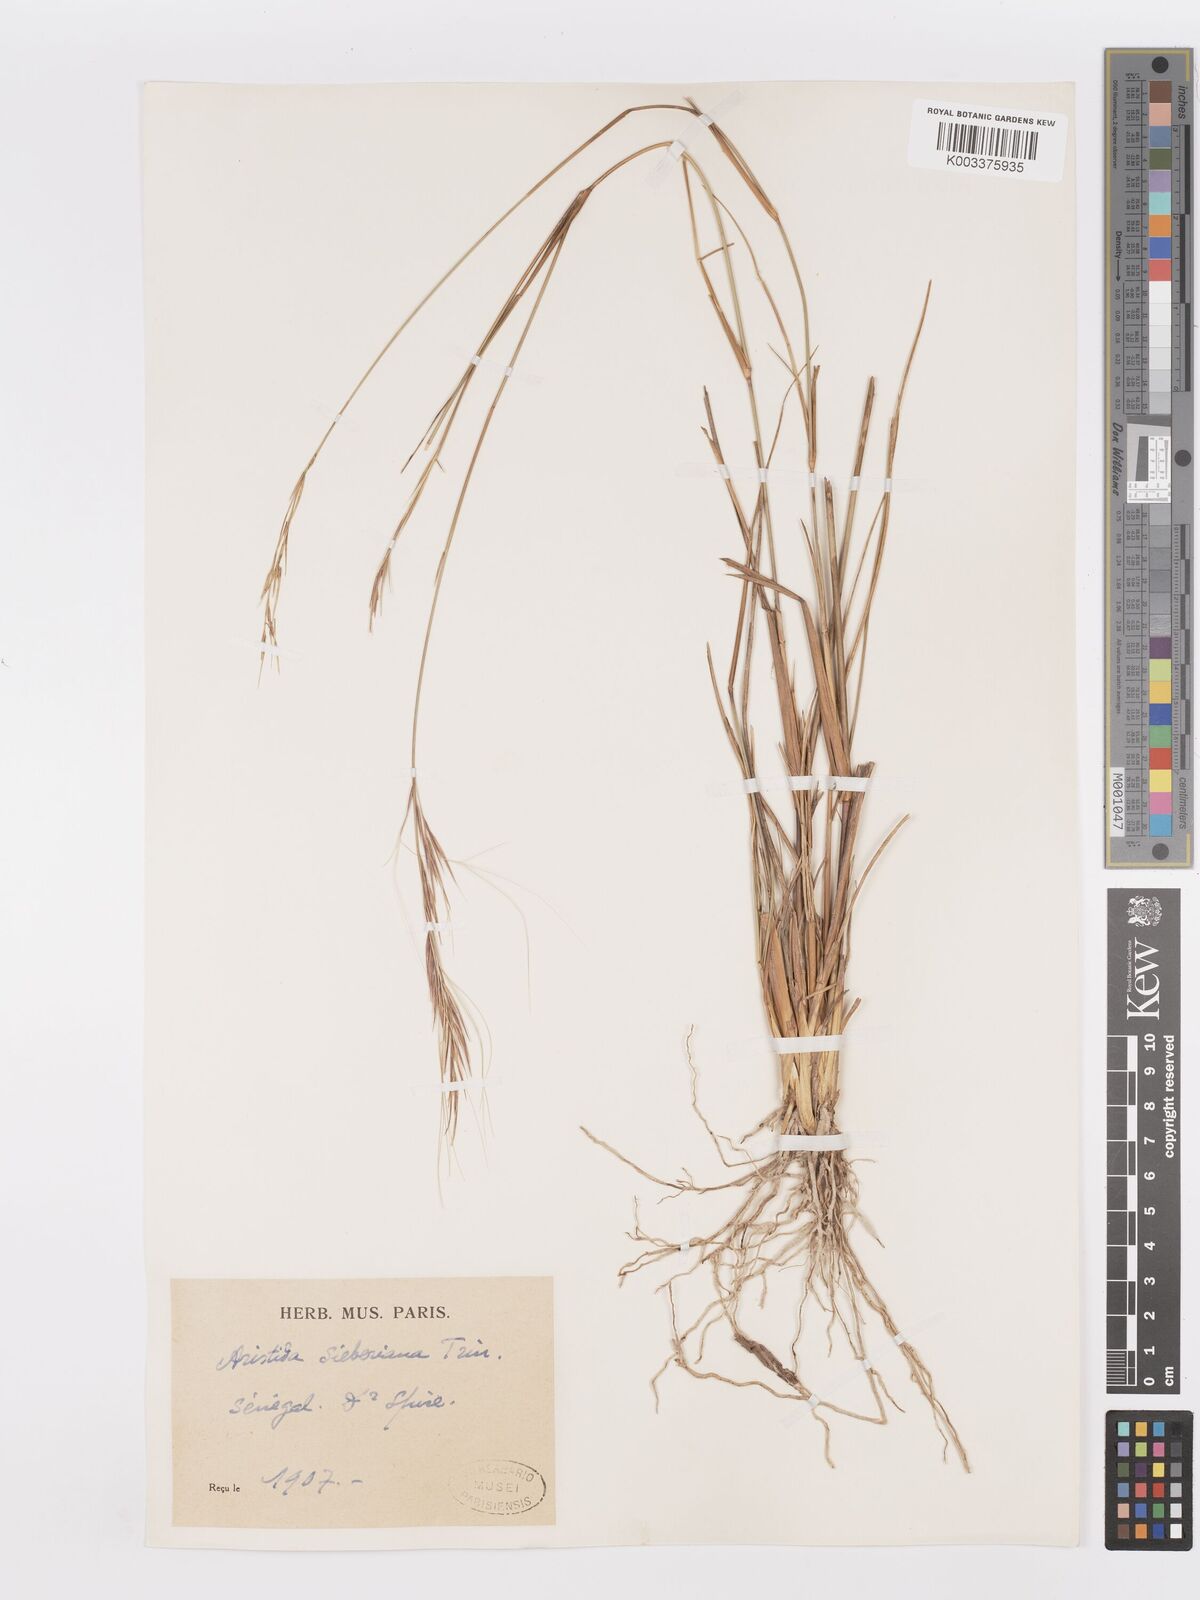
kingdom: Plantae
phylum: Tracheophyta
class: Liliopsida
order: Poales
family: Poaceae
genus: Aristida
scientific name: Aristida sieberiana
